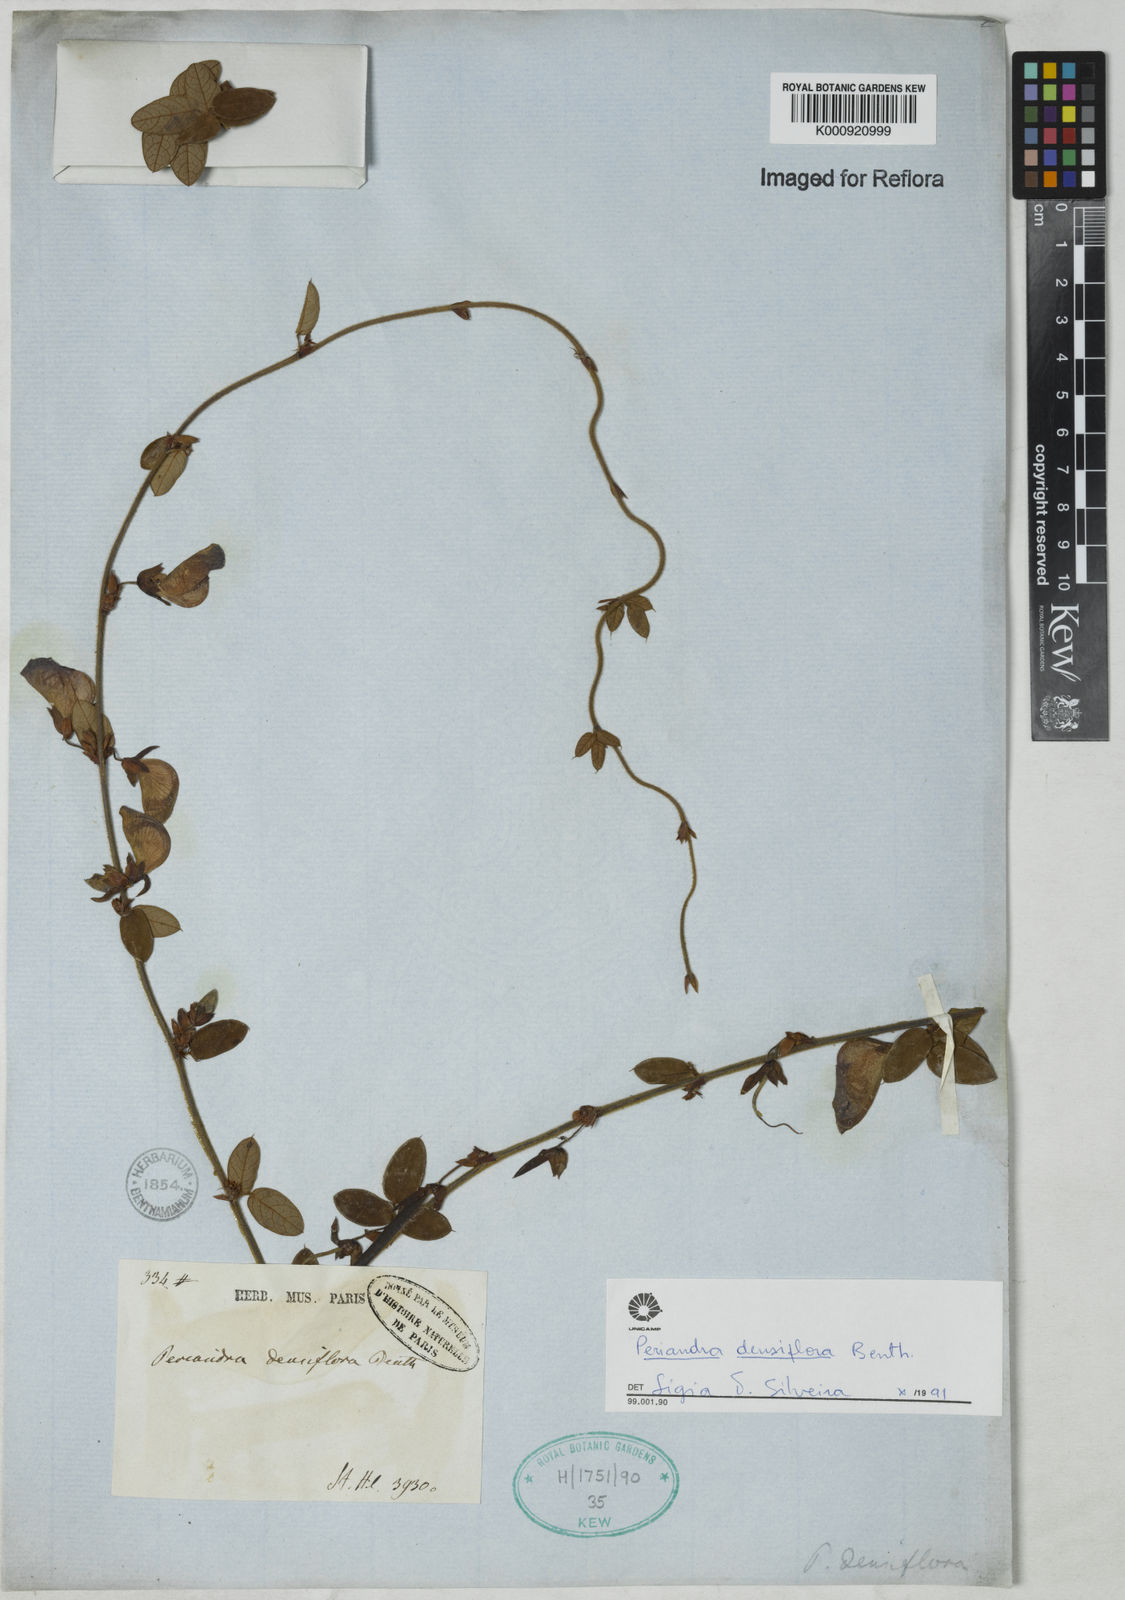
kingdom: Plantae
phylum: Tracheophyta
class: Magnoliopsida
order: Fabales
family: Fabaceae
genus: Periandra
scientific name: Periandra densiflora
